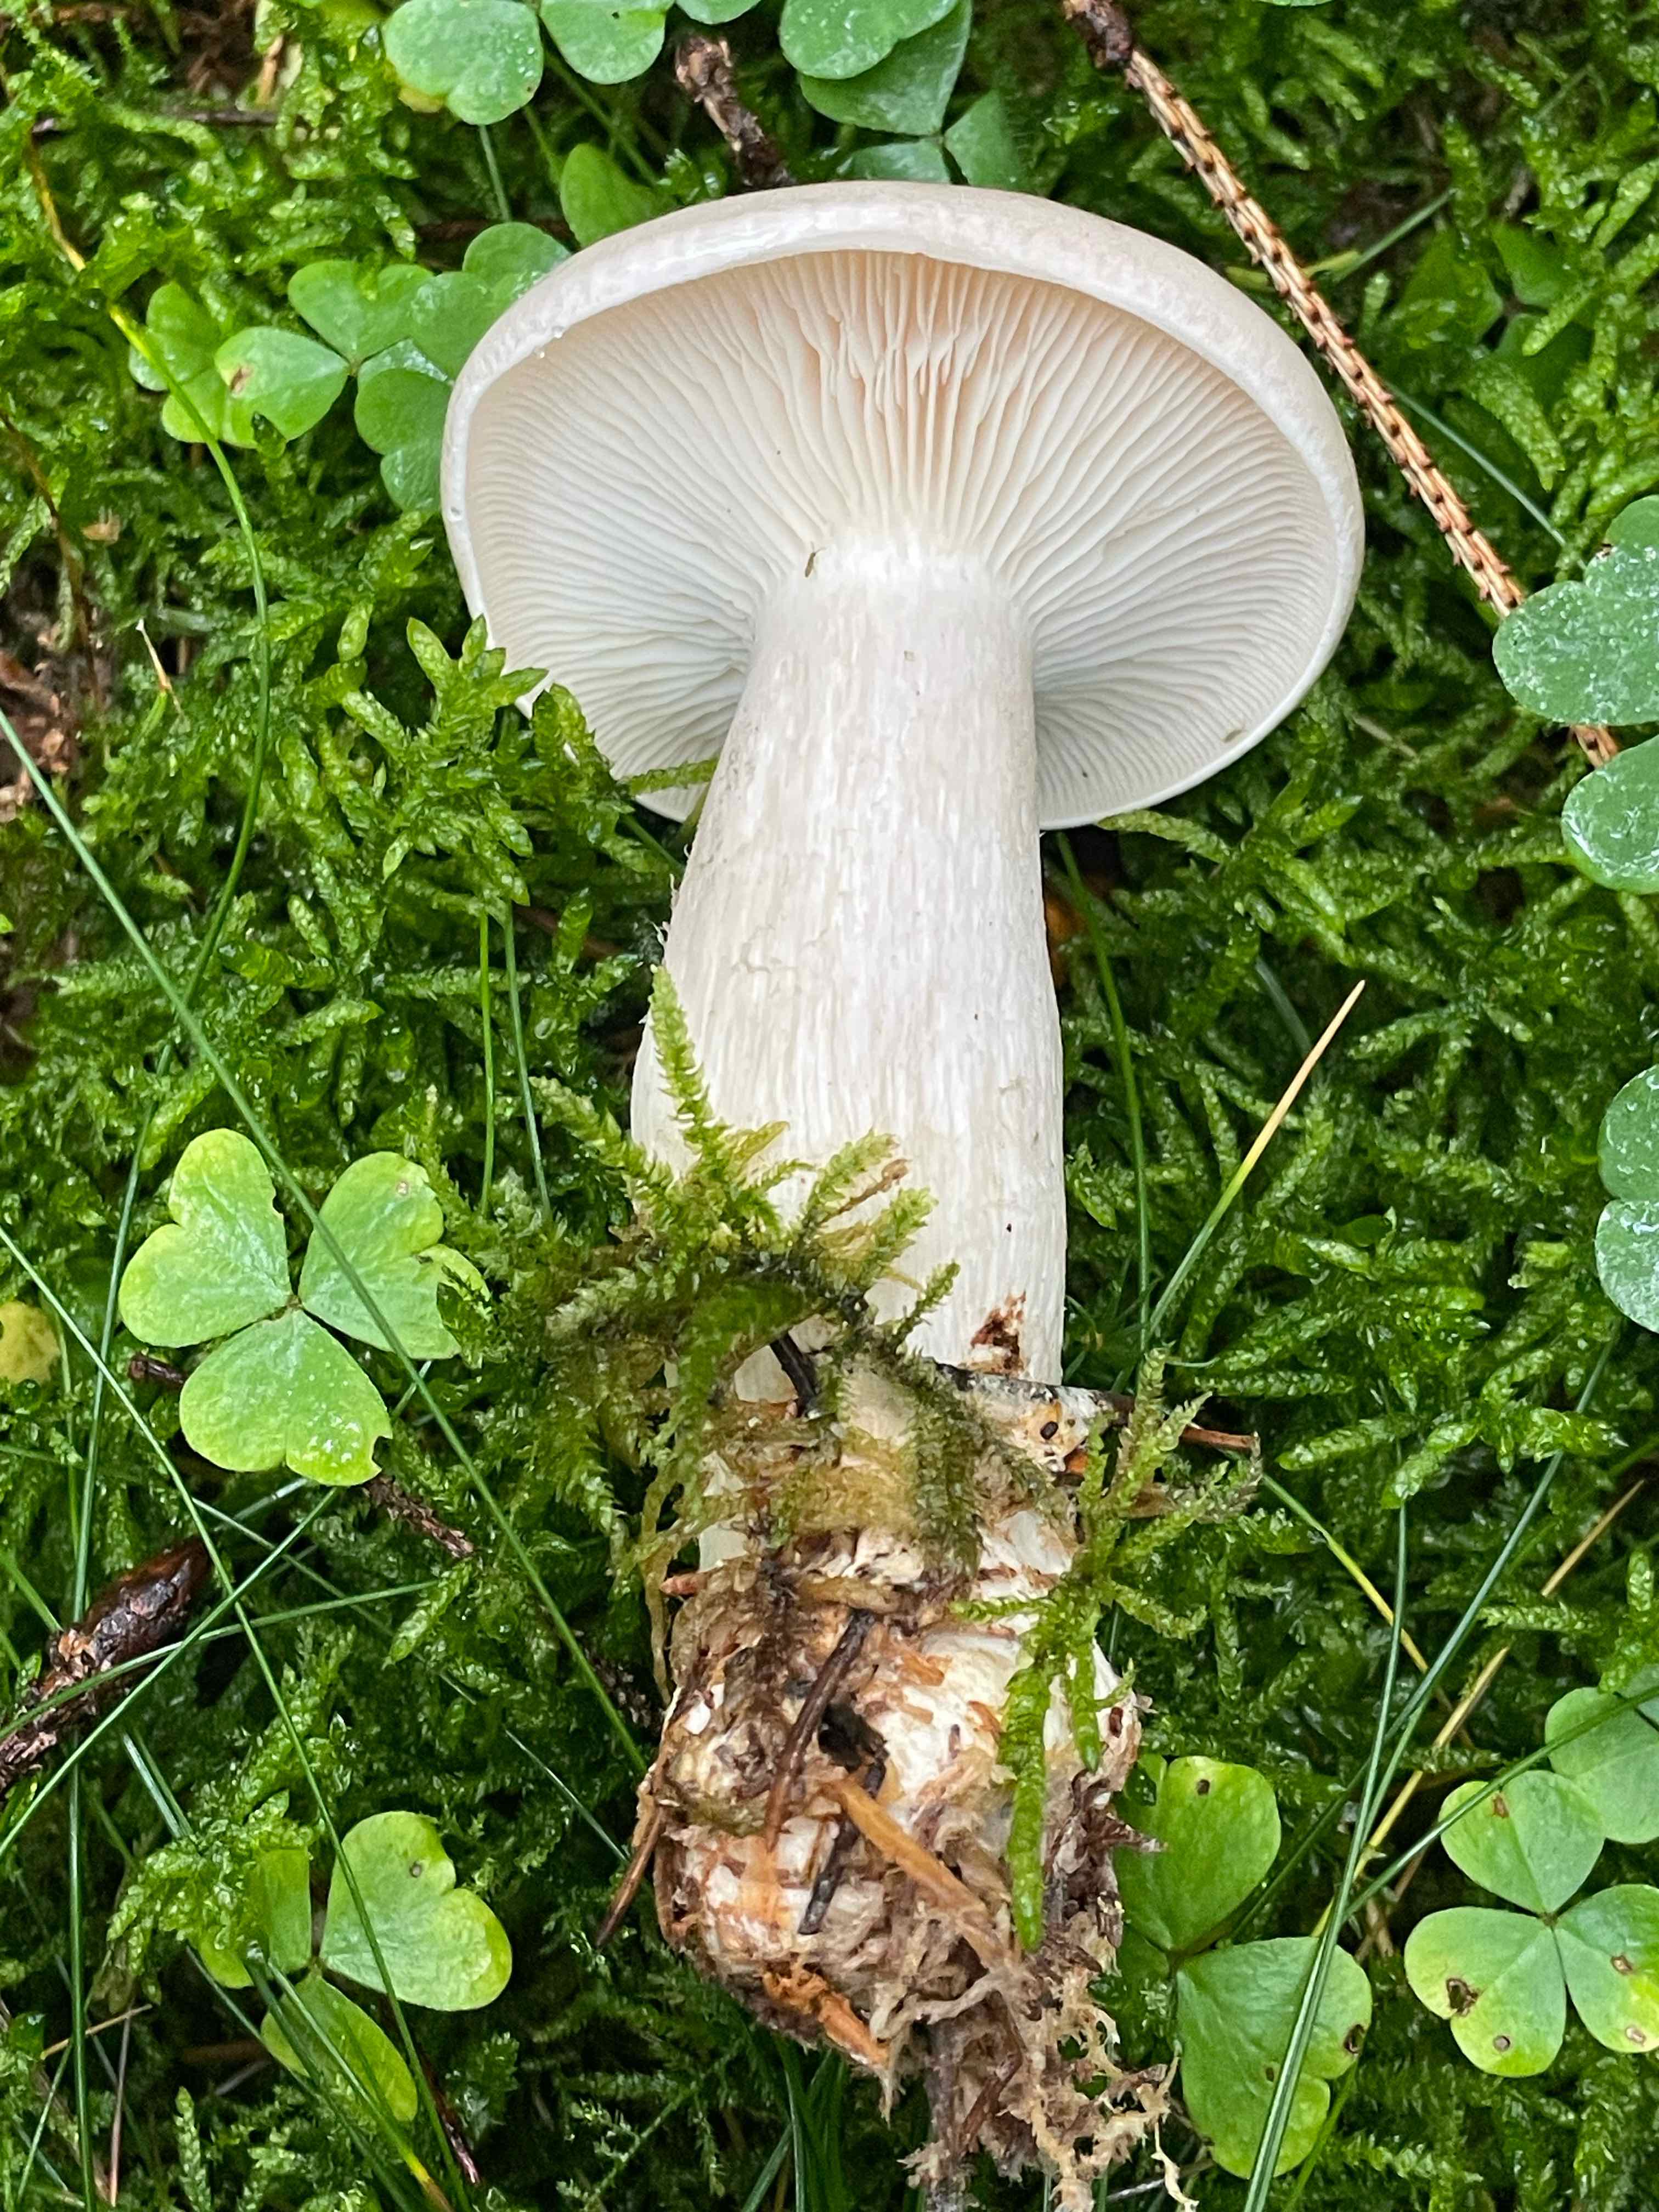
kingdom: Fungi
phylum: Basidiomycota
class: Agaricomycetes
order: Agaricales
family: Tricholomataceae
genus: Clitocybe
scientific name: Clitocybe nebularis
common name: tåge-tragthat
